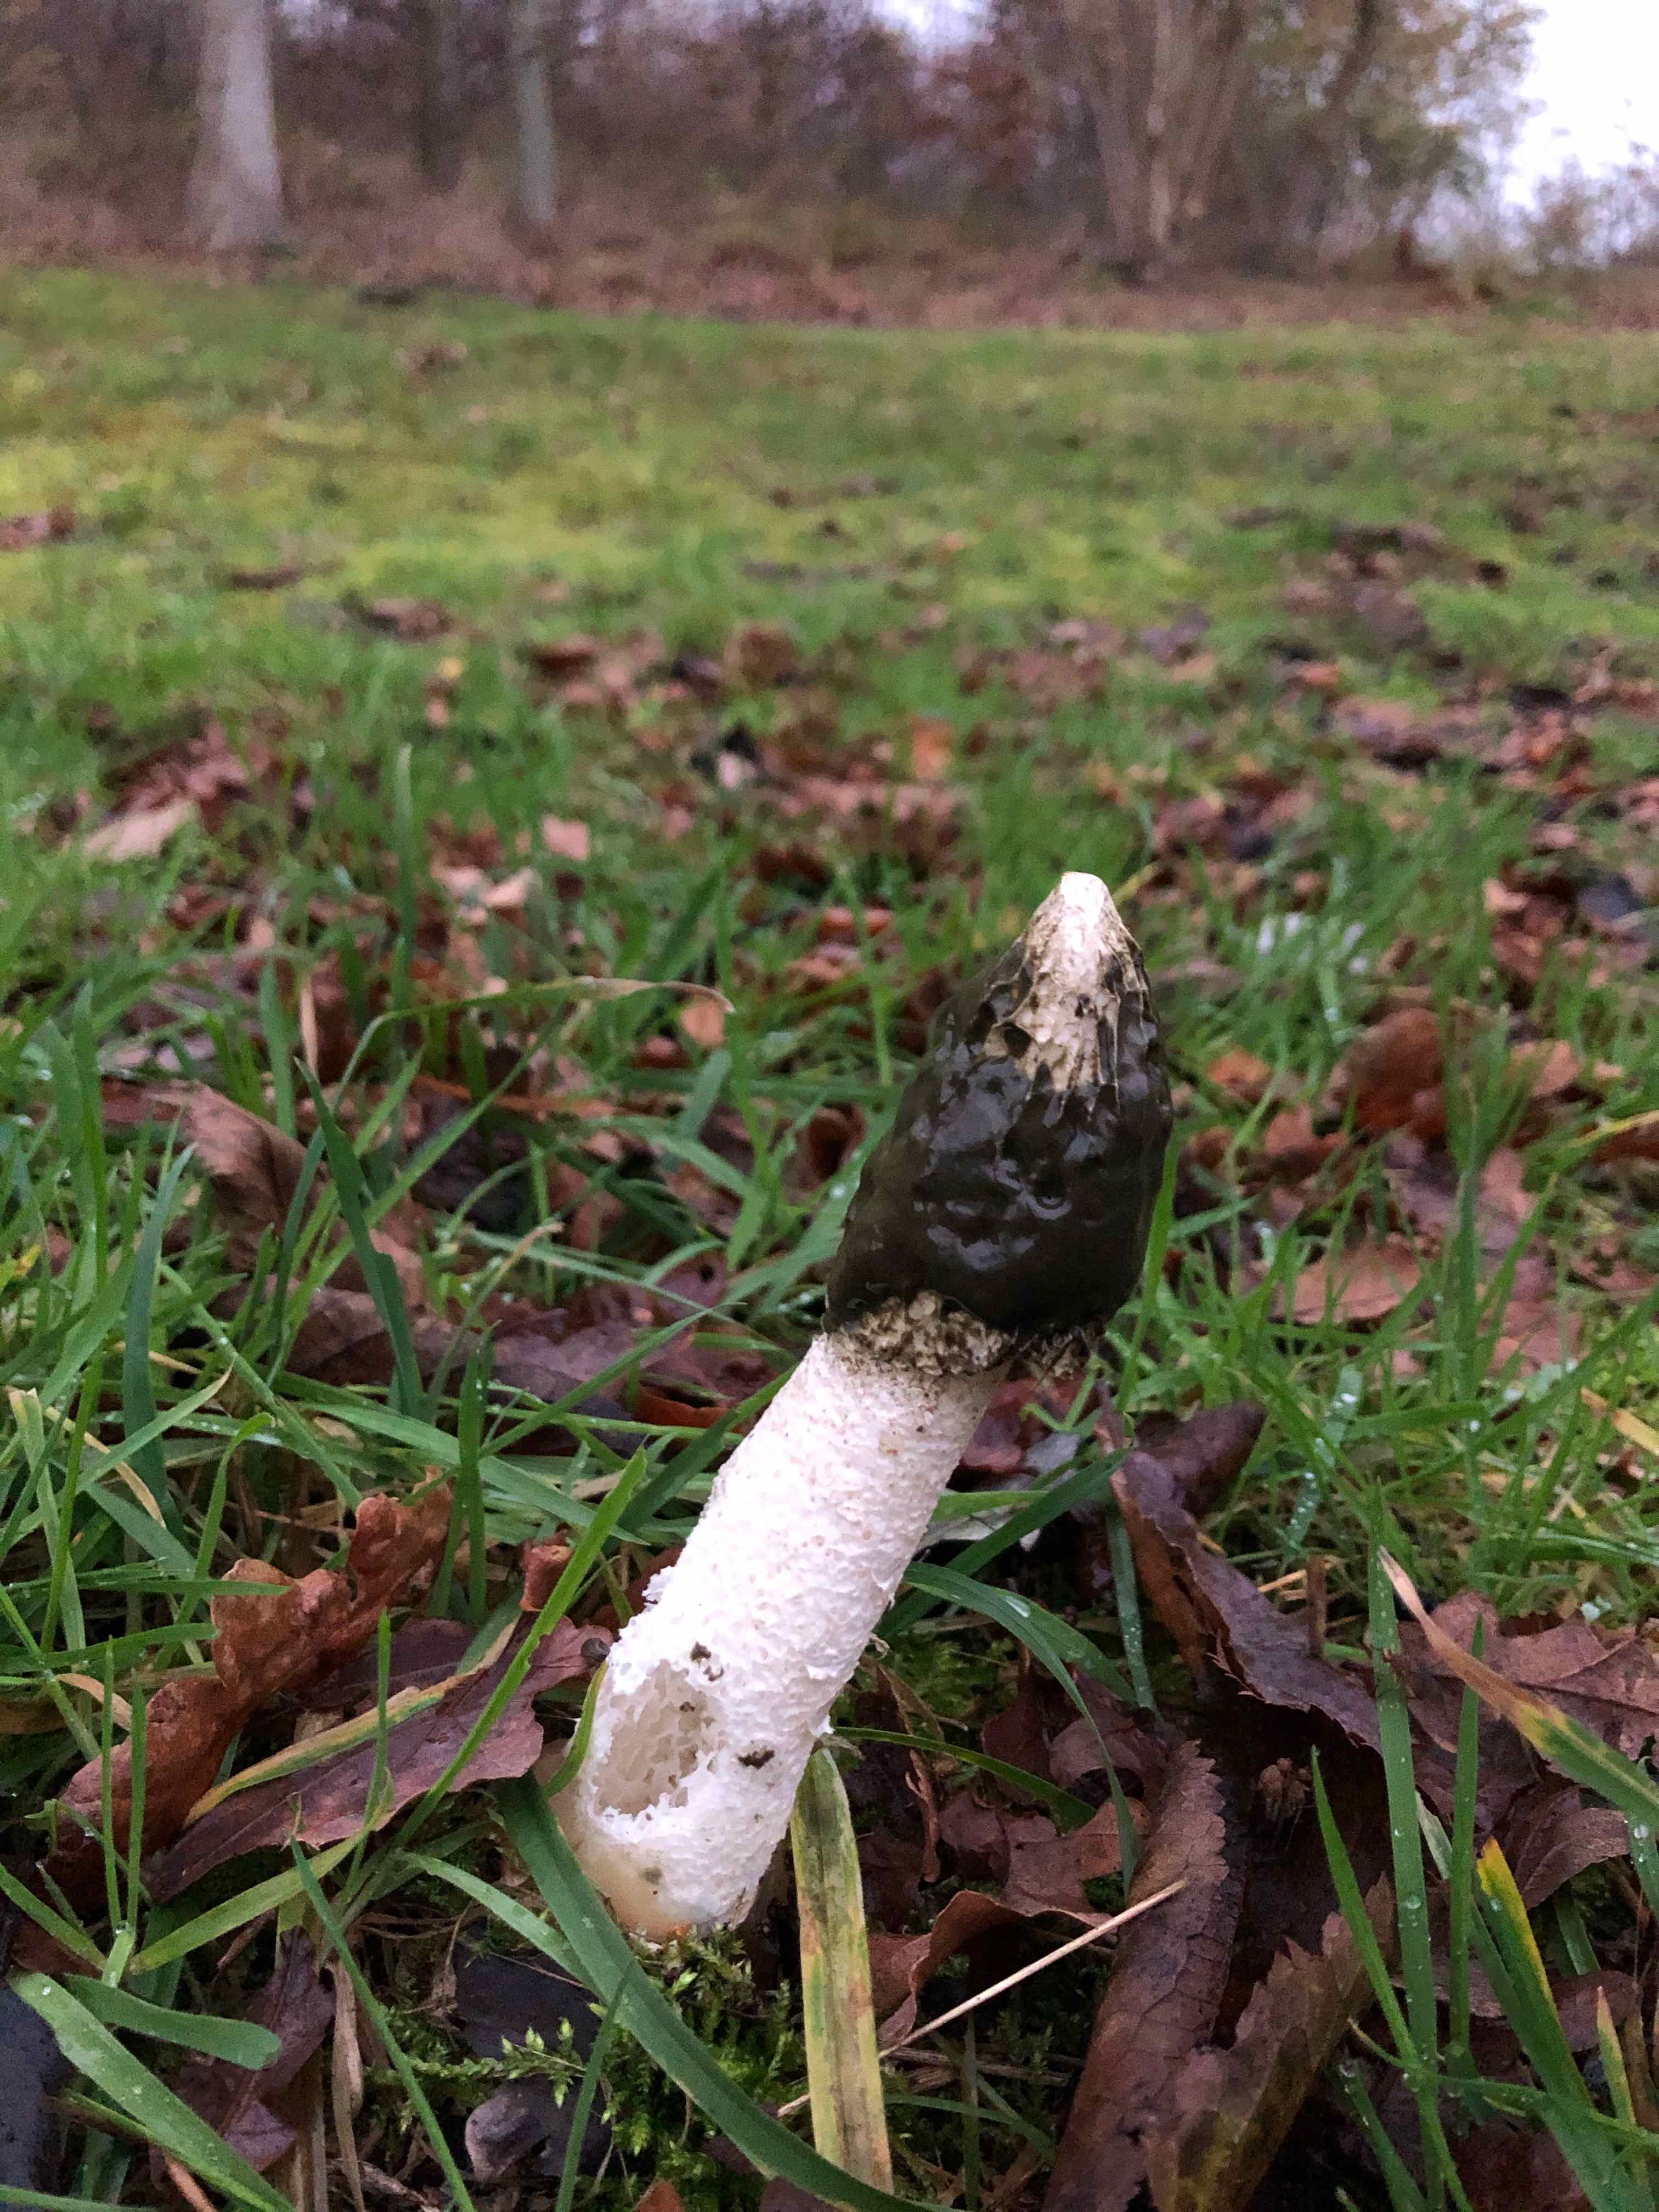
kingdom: Fungi
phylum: Basidiomycota
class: Agaricomycetes
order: Phallales
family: Phallaceae
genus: Phallus
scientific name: Phallus impudicus
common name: almindelig stinksvamp
